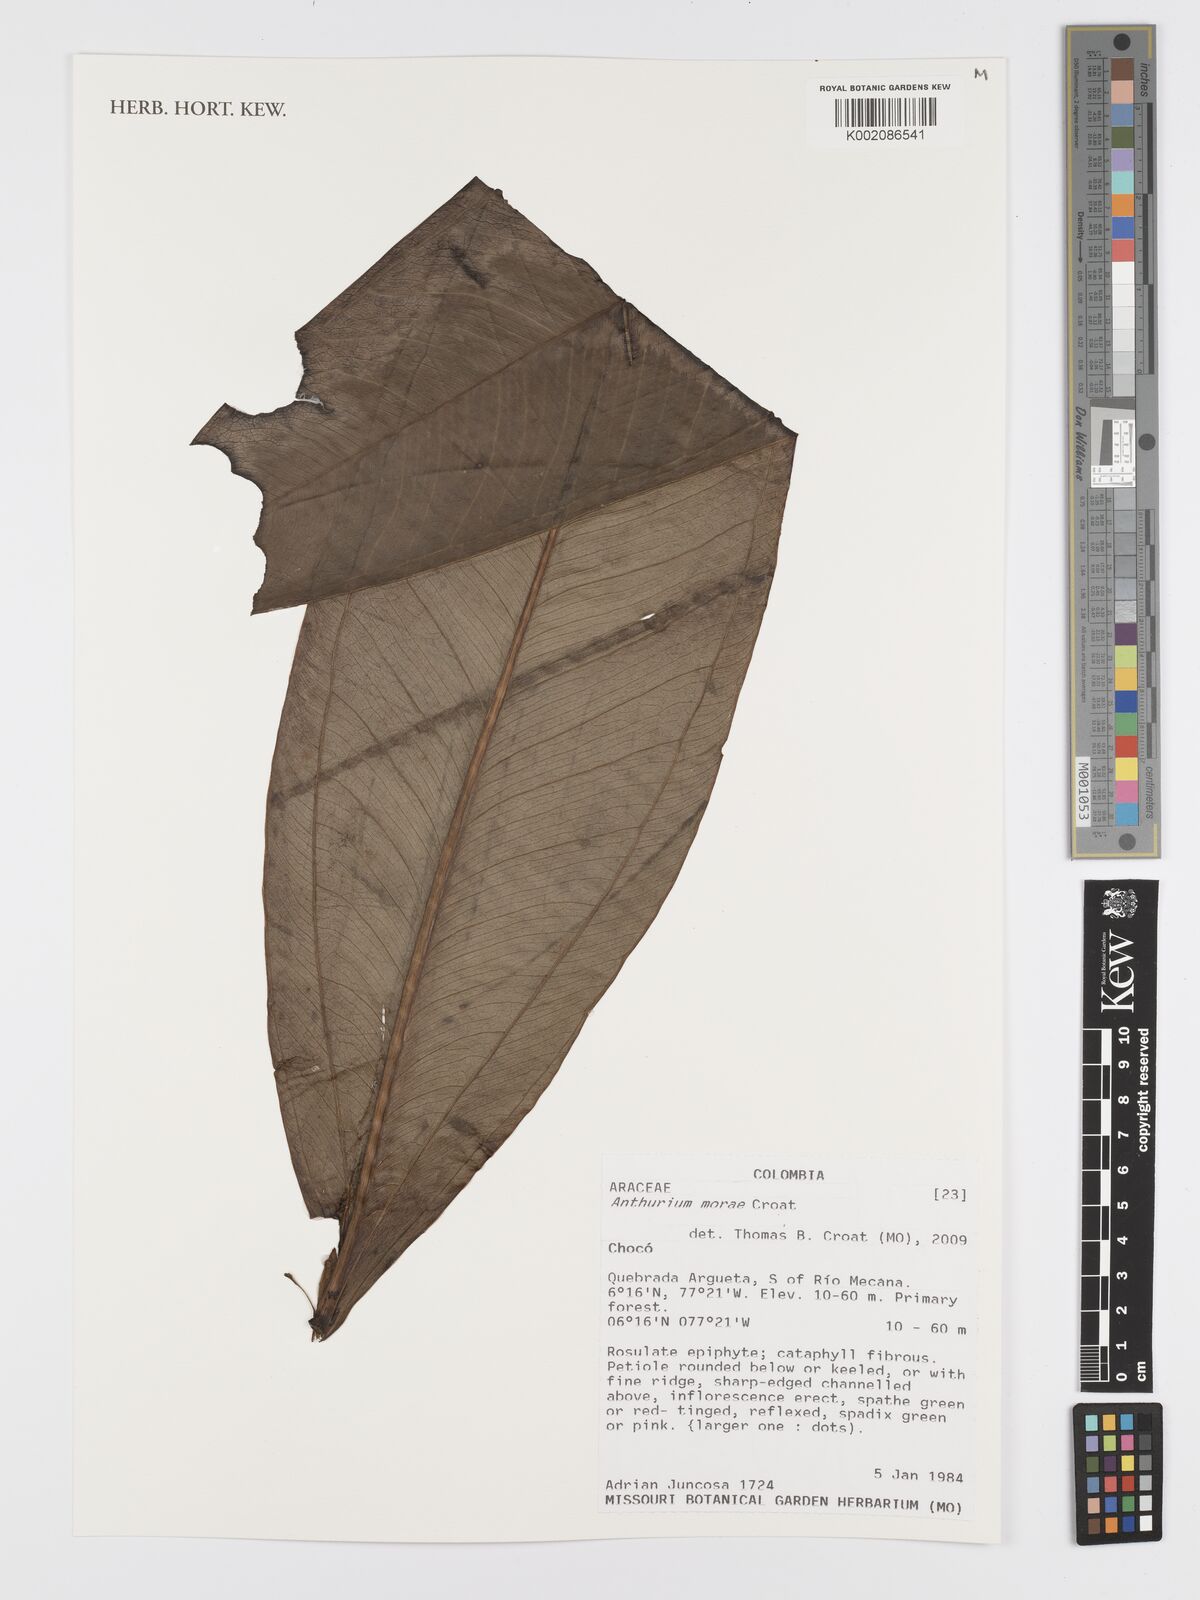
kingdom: Plantae
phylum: Tracheophyta
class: Liliopsida
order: Alismatales
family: Araceae
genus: Anthurium
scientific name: Anthurium morae
